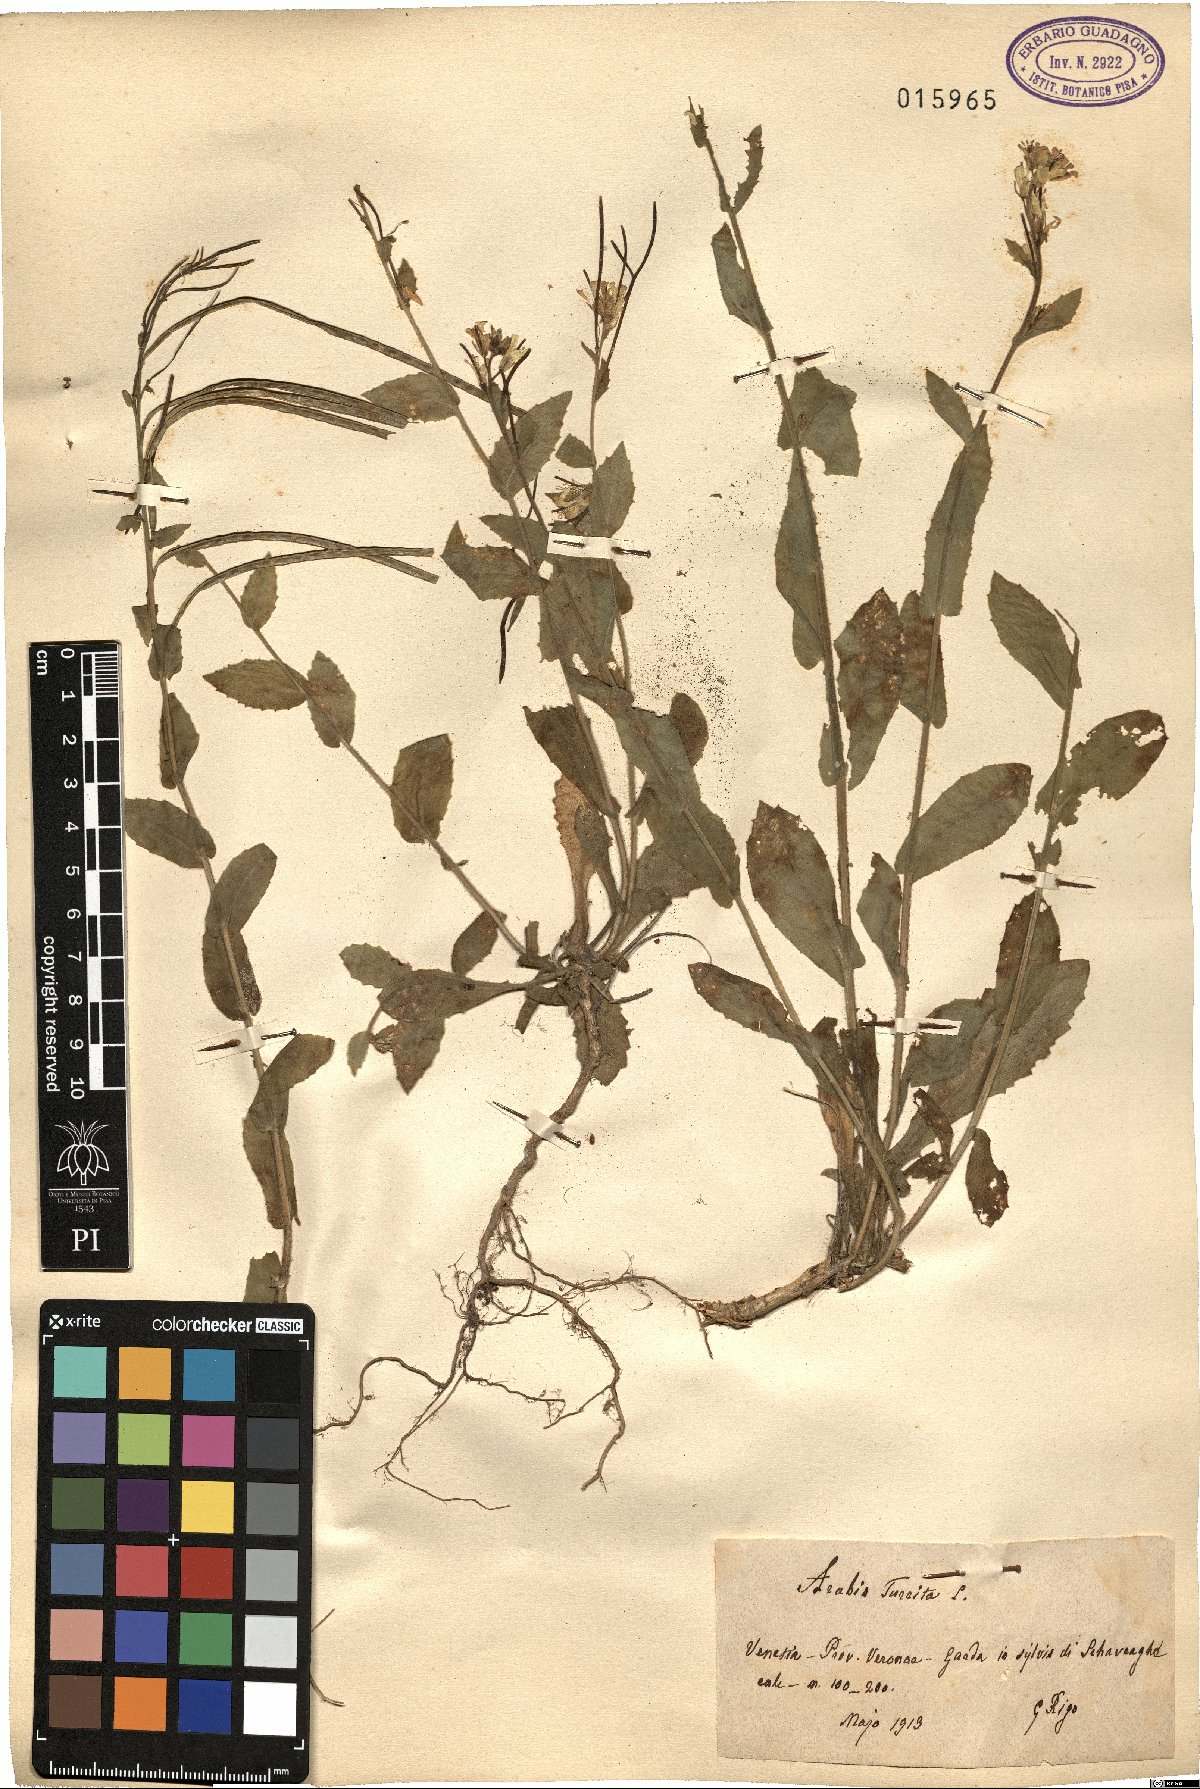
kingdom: Plantae
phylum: Tracheophyta
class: Magnoliopsida
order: Brassicales
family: Brassicaceae
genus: Pseudoturritis
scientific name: Pseudoturritis turrita
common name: Tower cress
